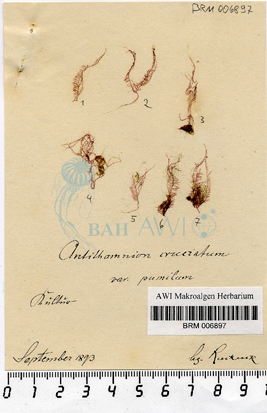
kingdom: Plantae
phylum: Rhodophyta
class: Florideophyceae
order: Ceramiales
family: Ceramiaceae
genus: Antithamnion
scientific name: Antithamnion cruciatum
